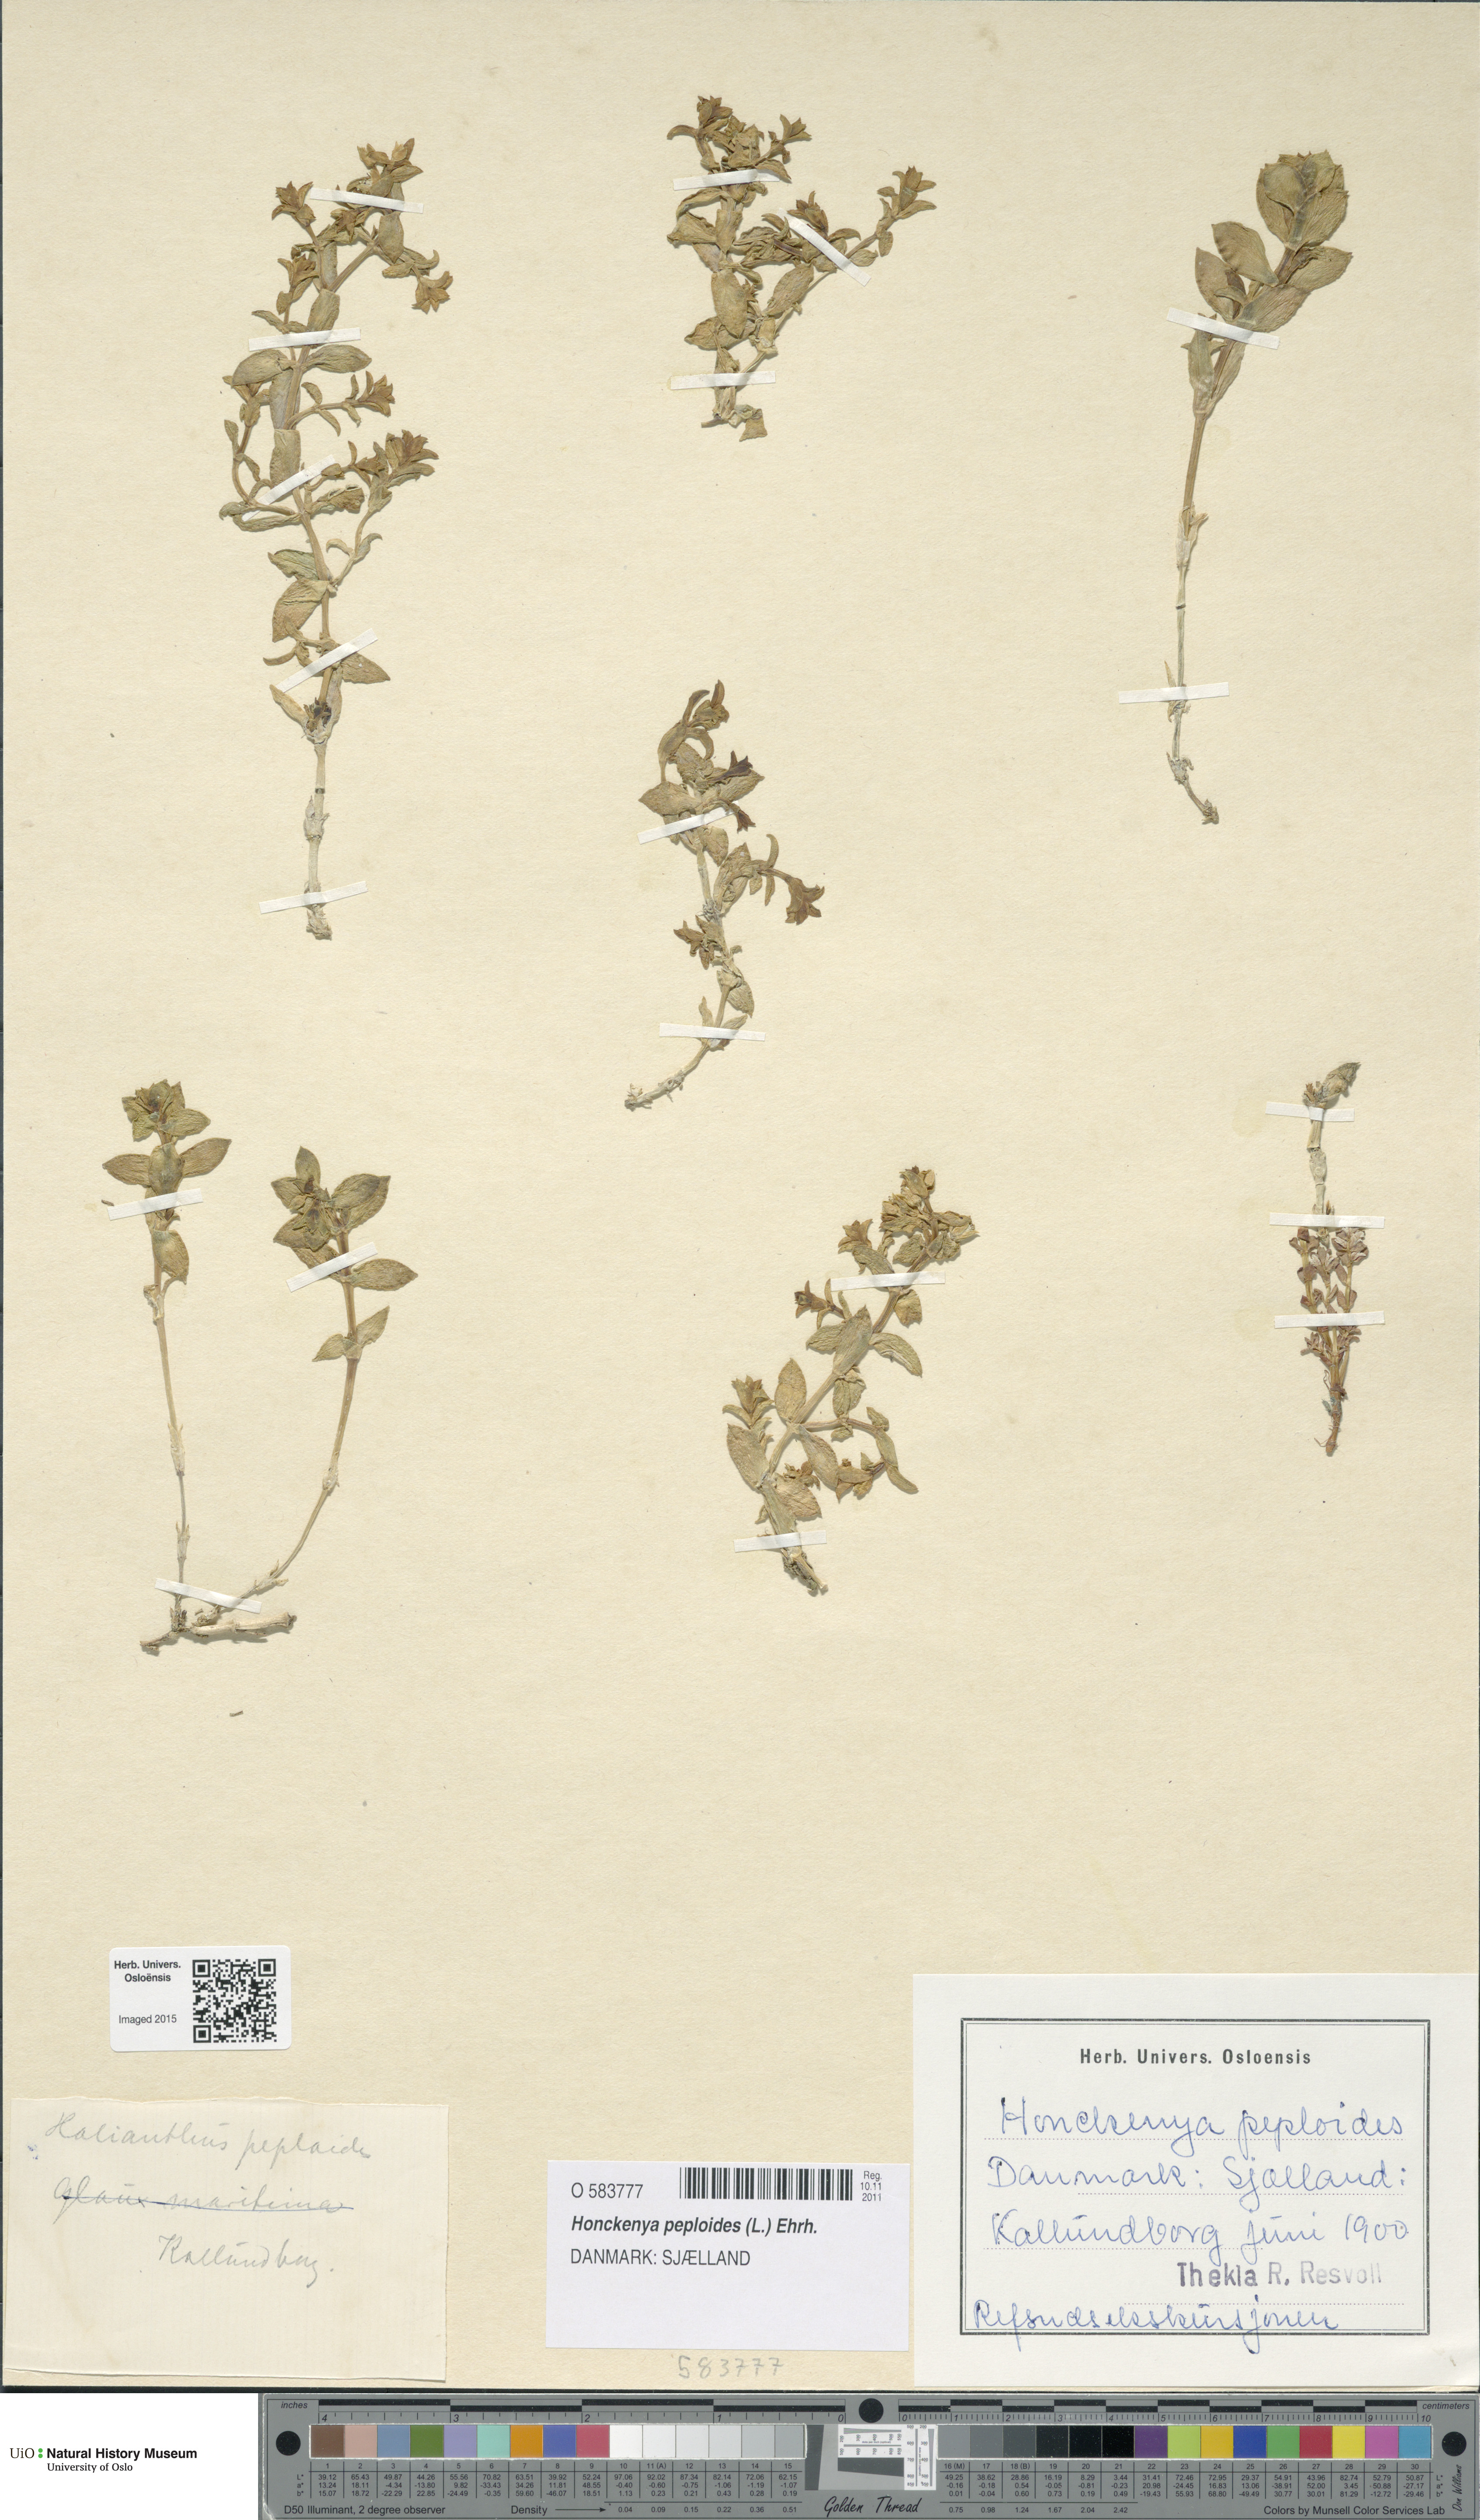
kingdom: Plantae
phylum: Tracheophyta
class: Magnoliopsida
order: Caryophyllales
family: Caryophyllaceae
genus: Honckenya
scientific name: Honckenya peploides
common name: Sea sandwort
